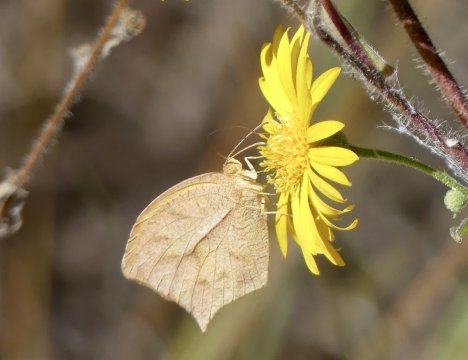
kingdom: Animalia
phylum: Arthropoda
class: Insecta
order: Lepidoptera
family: Pieridae
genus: Pyrisitia
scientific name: Pyrisitia proterpia
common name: Tailed Orange
